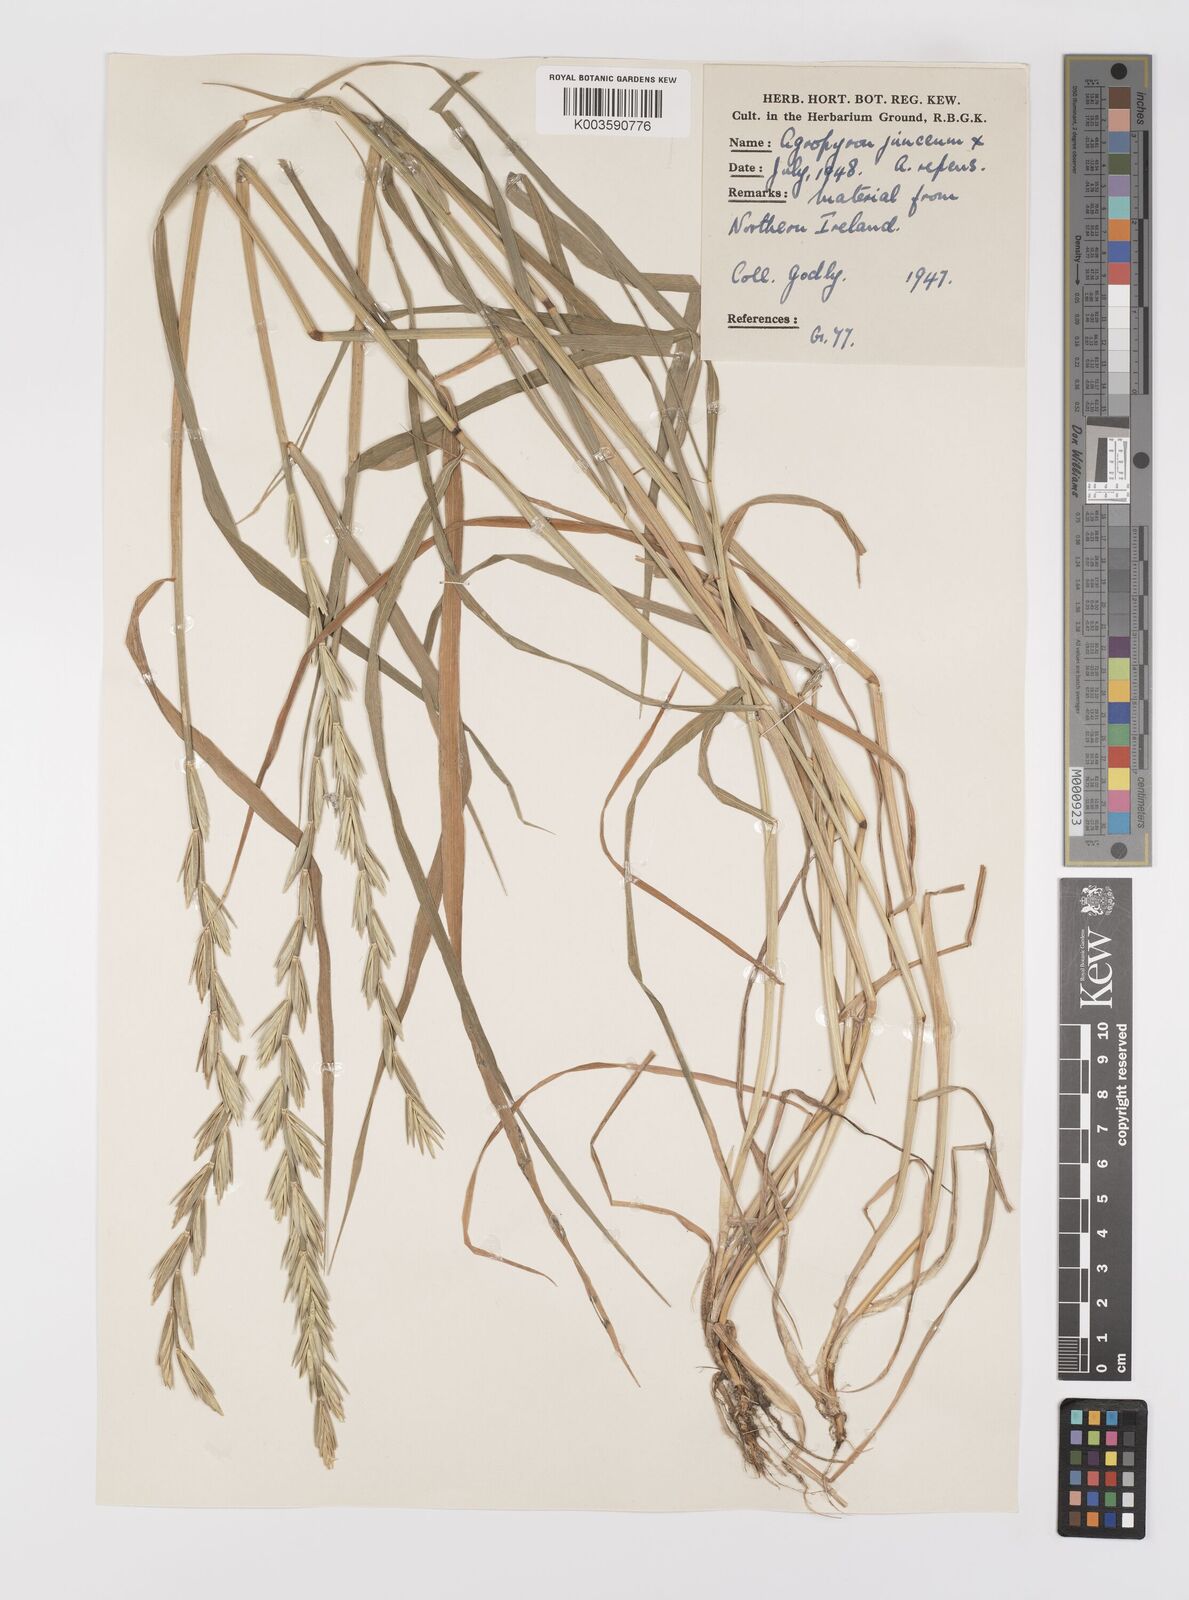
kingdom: Plantae
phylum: Tracheophyta
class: Liliopsida
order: Poales
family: Poaceae
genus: Thinopyrum
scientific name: Thinopyrum junceum
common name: Russian wheatgrass
